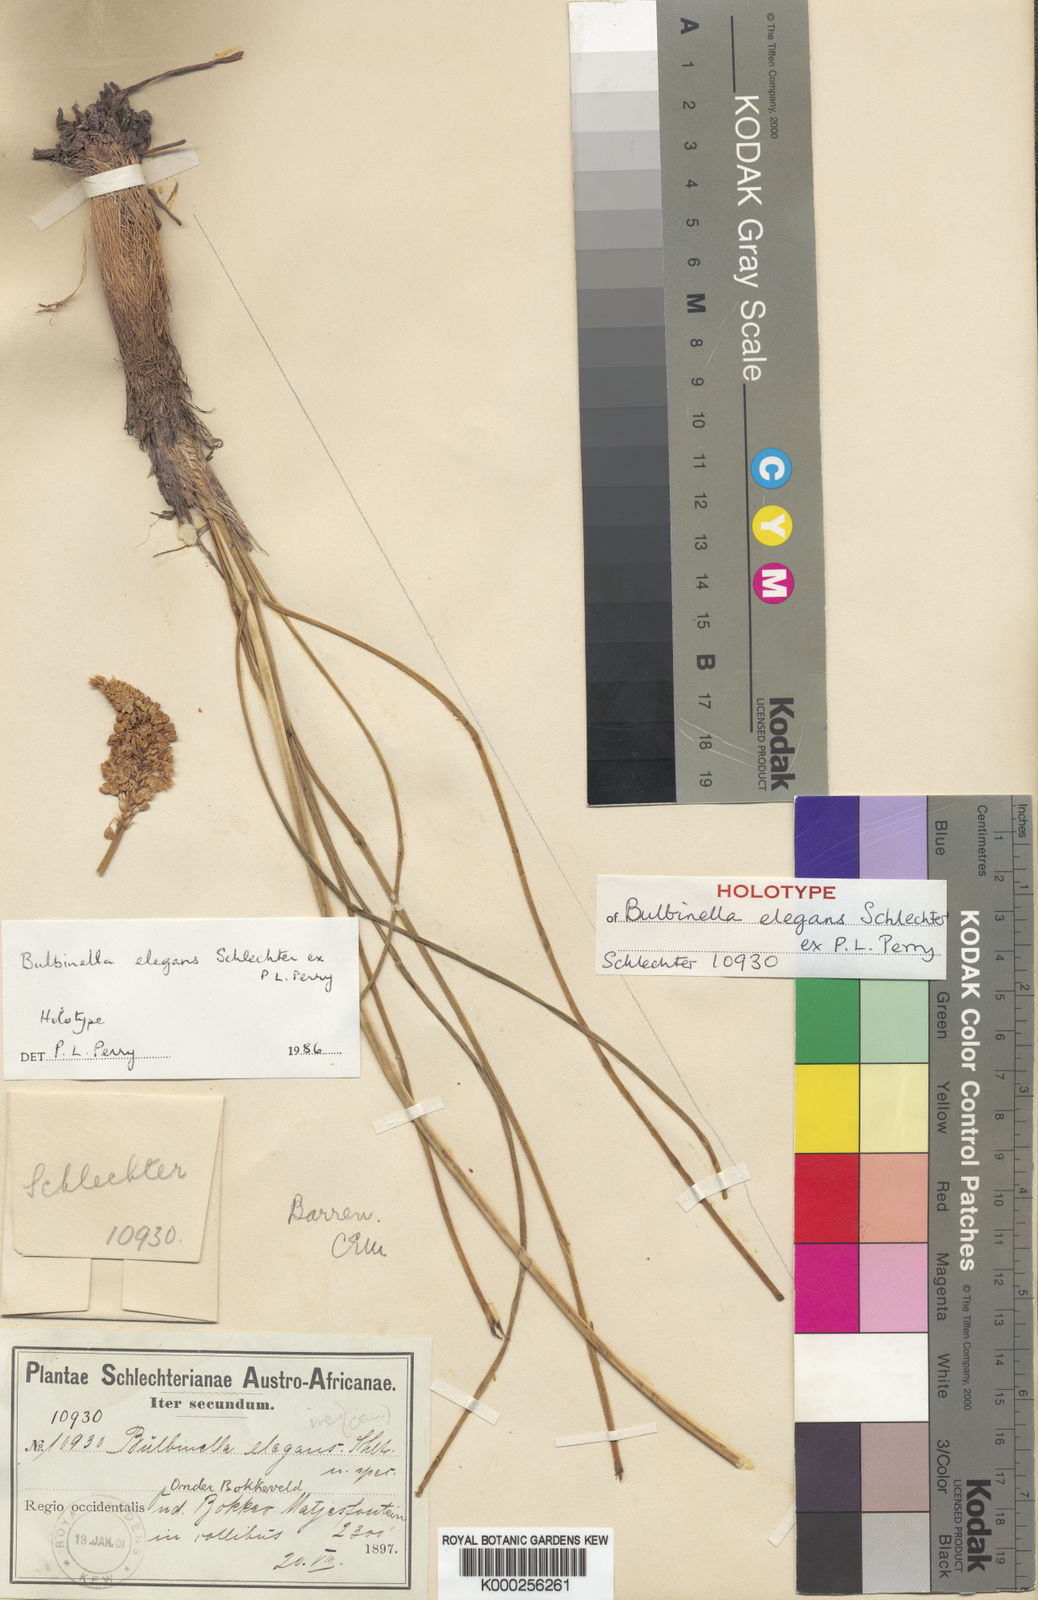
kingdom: Plantae
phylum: Tracheophyta
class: Liliopsida
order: Asparagales
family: Asphodelaceae
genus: Bulbinella
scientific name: Bulbinella elegans
